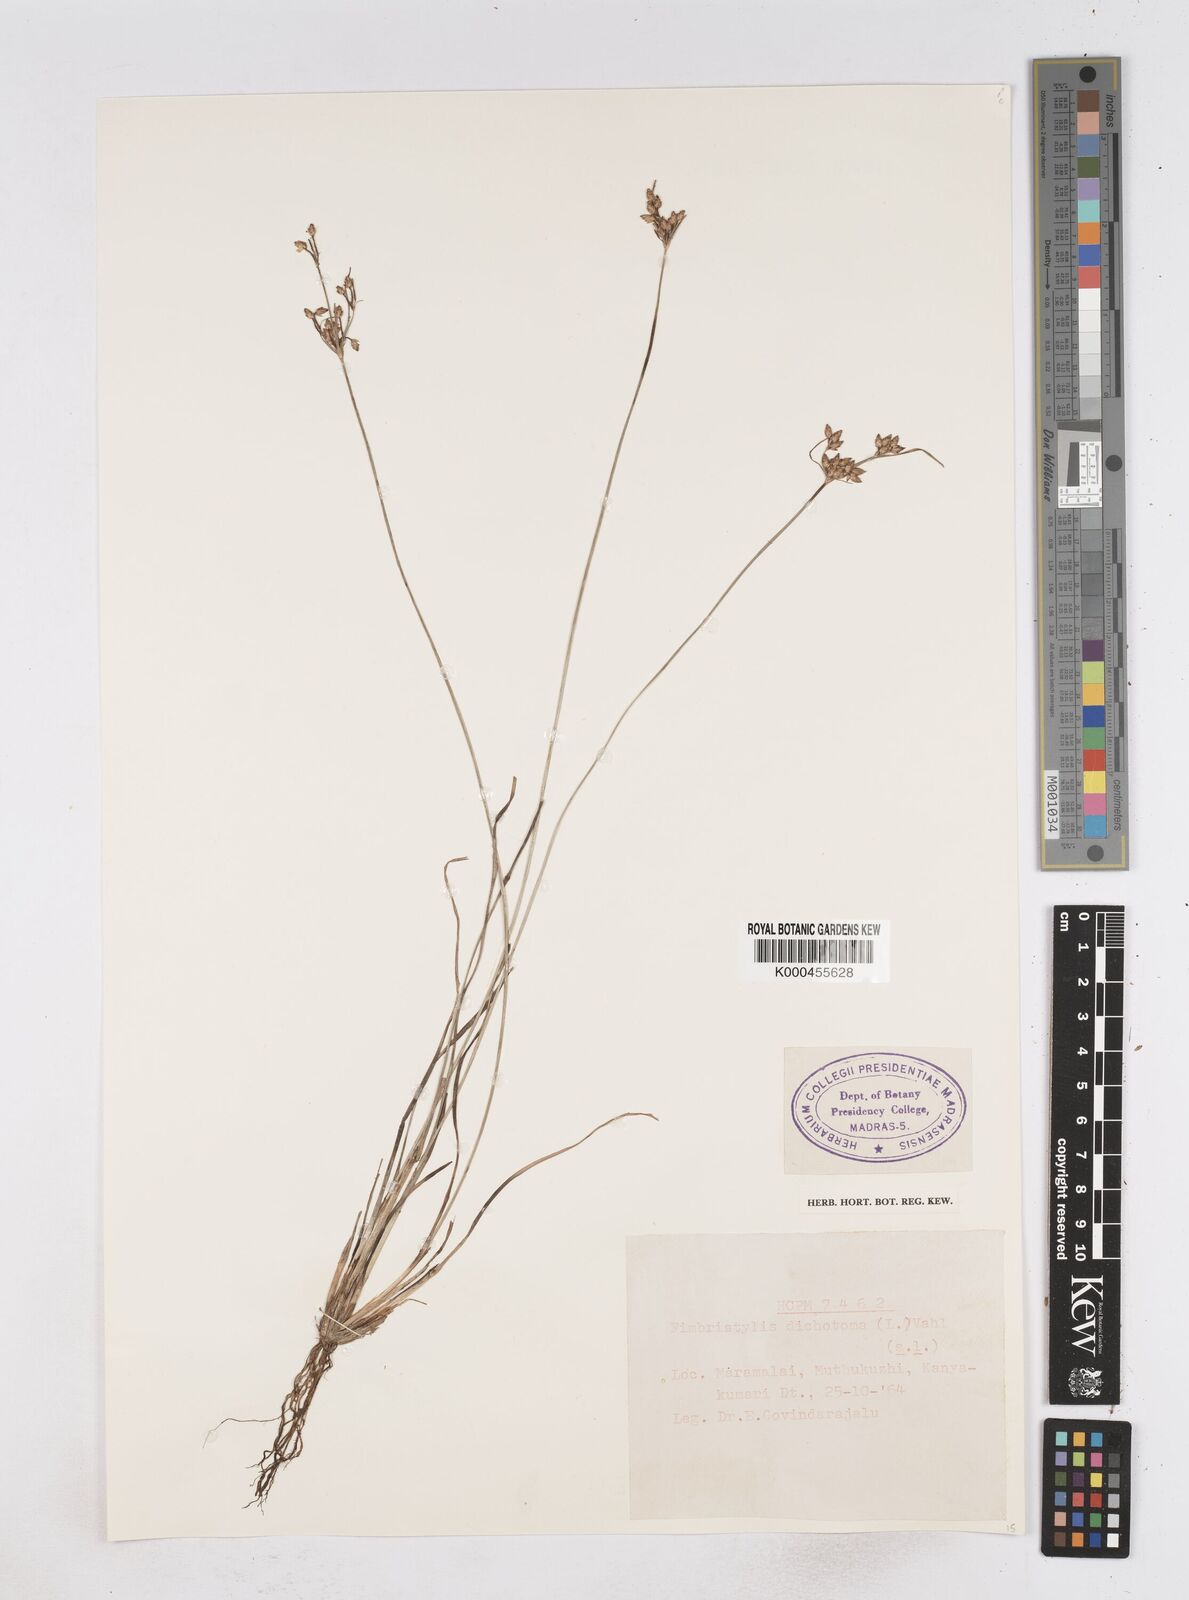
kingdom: Plantae
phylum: Tracheophyta
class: Liliopsida
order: Poales
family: Cyperaceae
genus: Fimbristylis
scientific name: Fimbristylis dichotoma
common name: Forked fimbry
